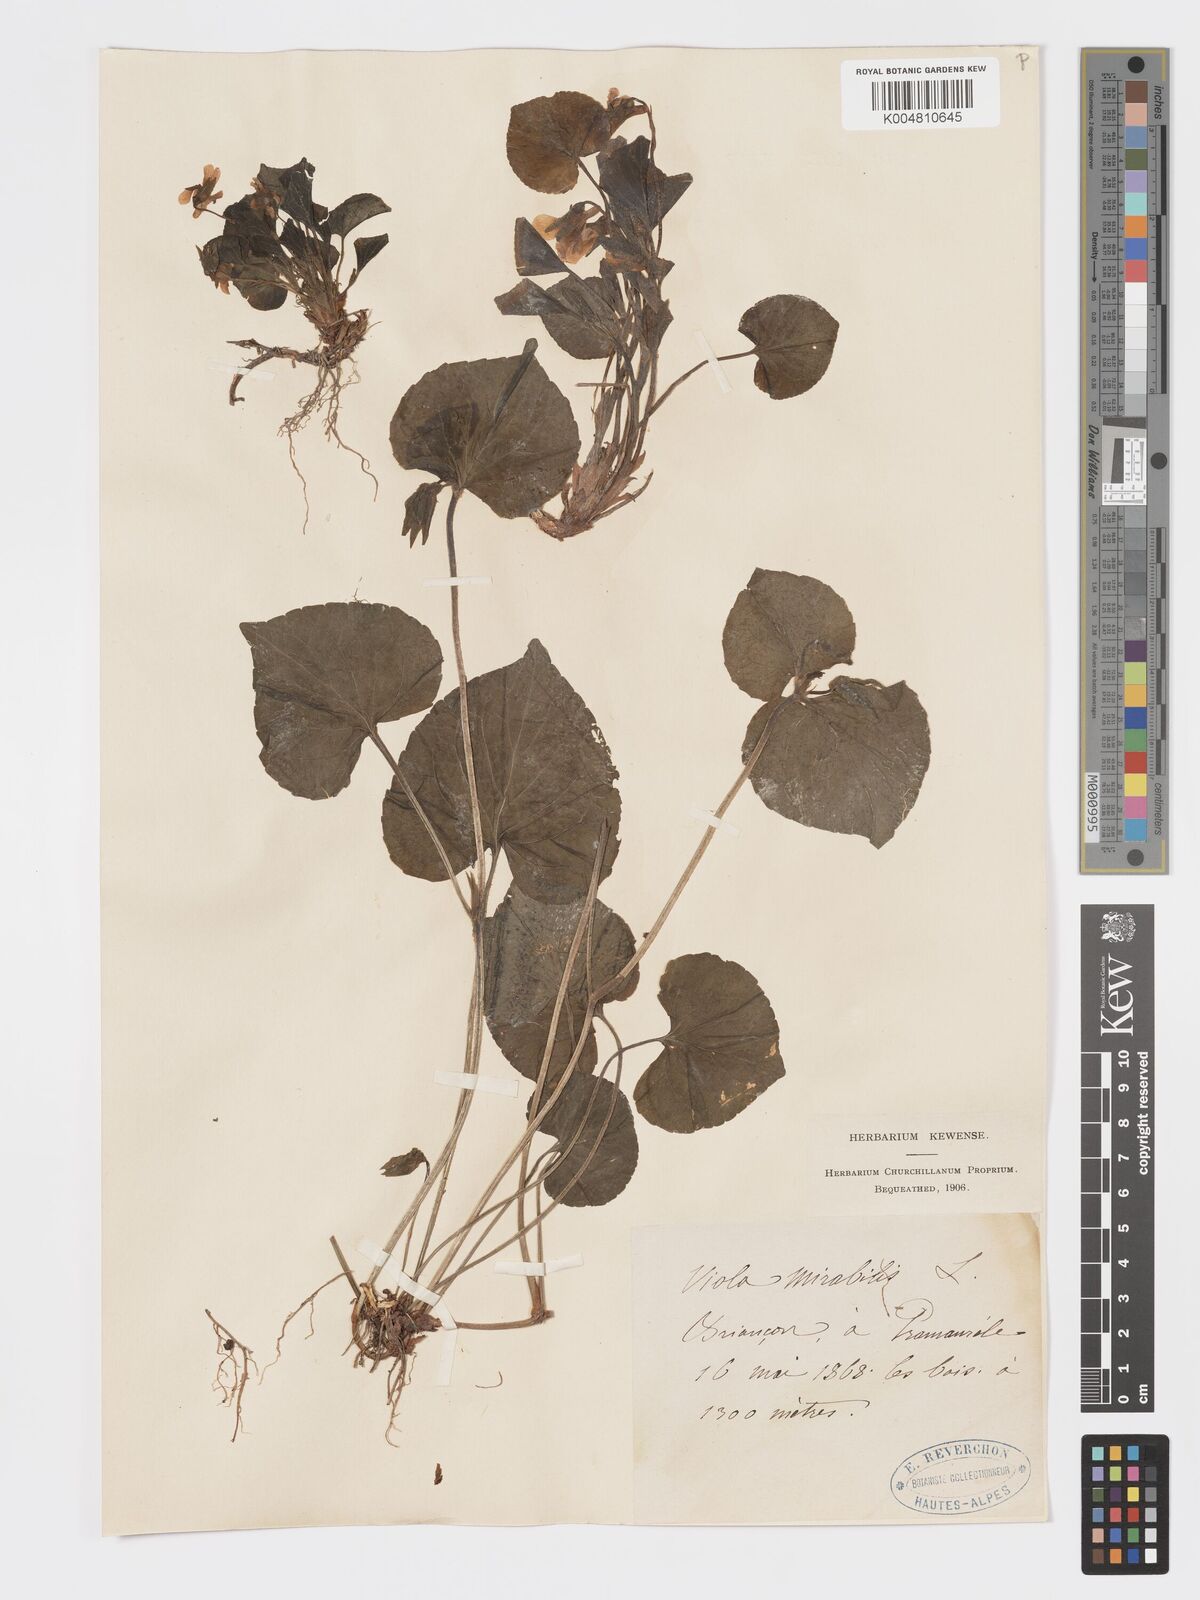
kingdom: Plantae
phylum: Tracheophyta
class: Magnoliopsida
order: Malpighiales
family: Violaceae
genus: Viola
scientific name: Viola mirabilis
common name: Wonder violet
